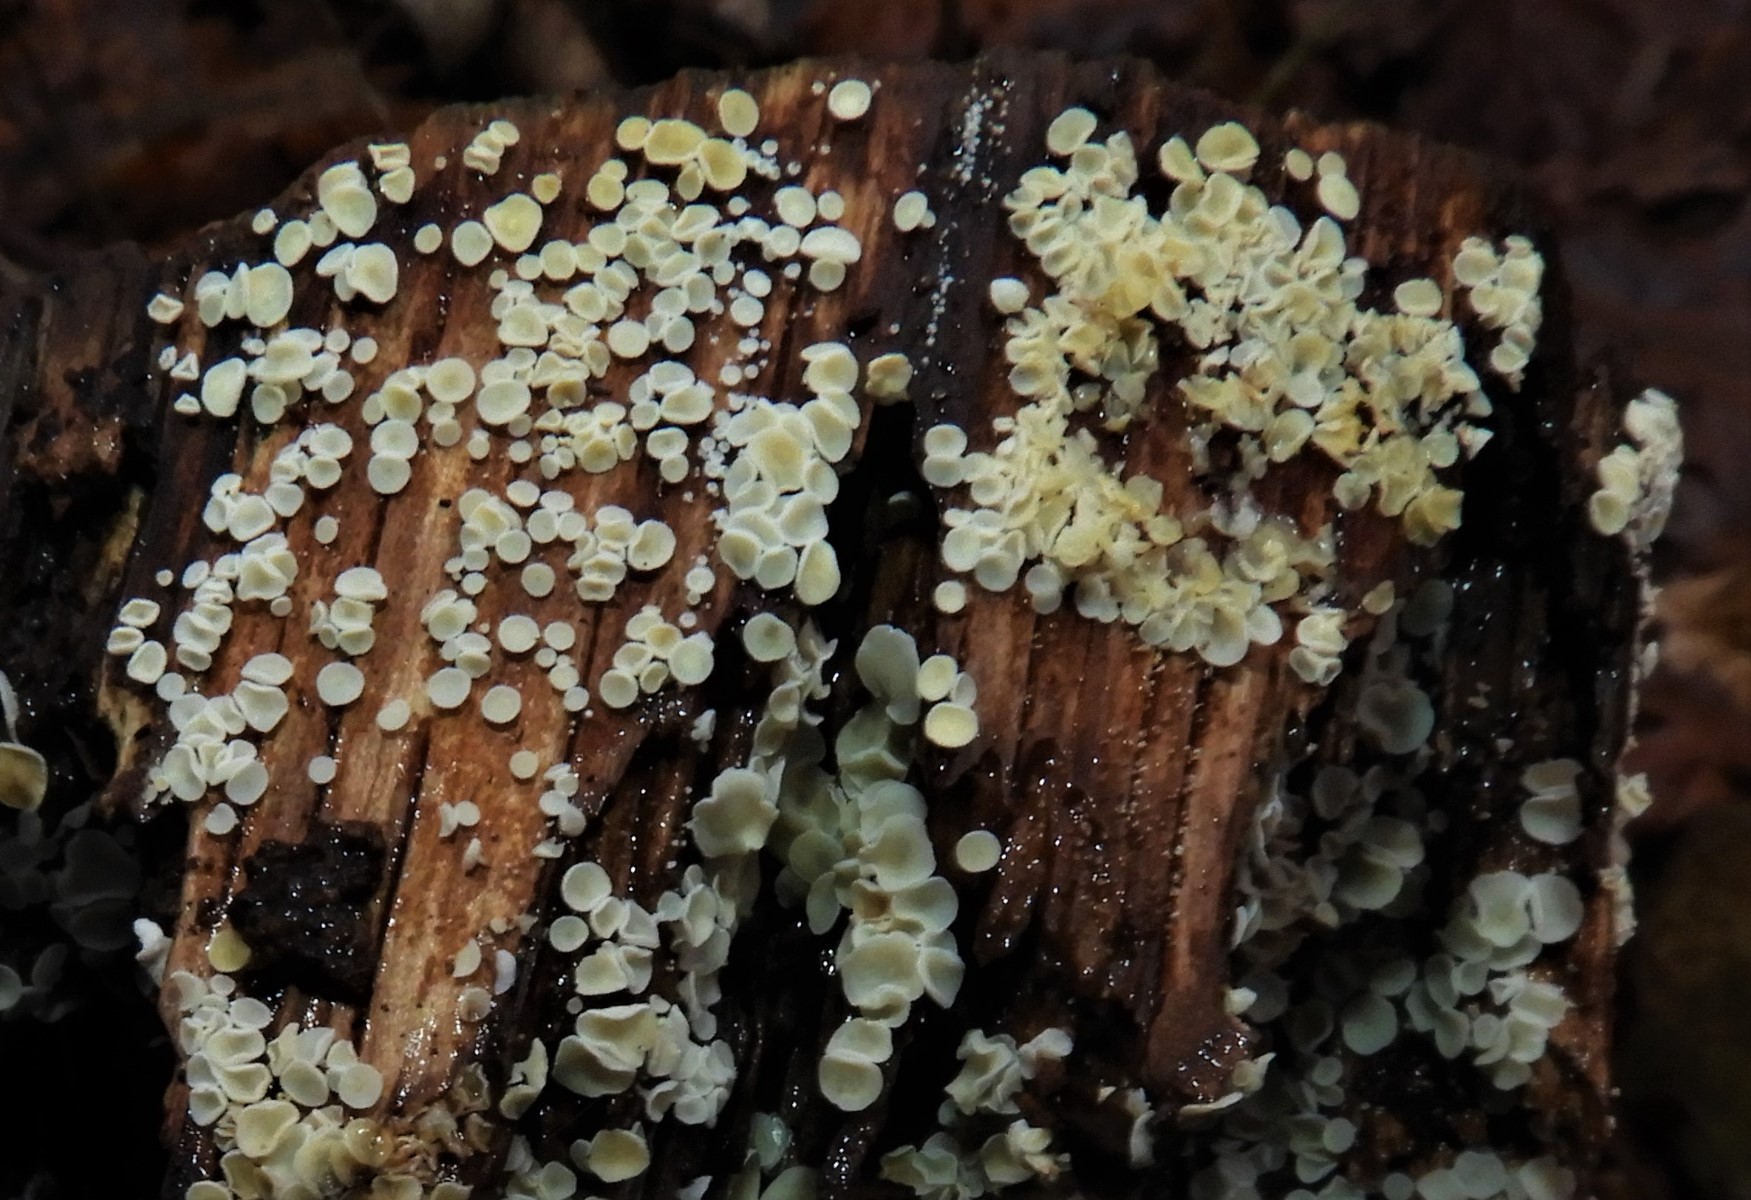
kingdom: Fungi
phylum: Ascomycota
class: Leotiomycetes
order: Helotiales
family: Hyaloscyphaceae
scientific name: Hyaloscyphaceae
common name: frynseskivefamilien
